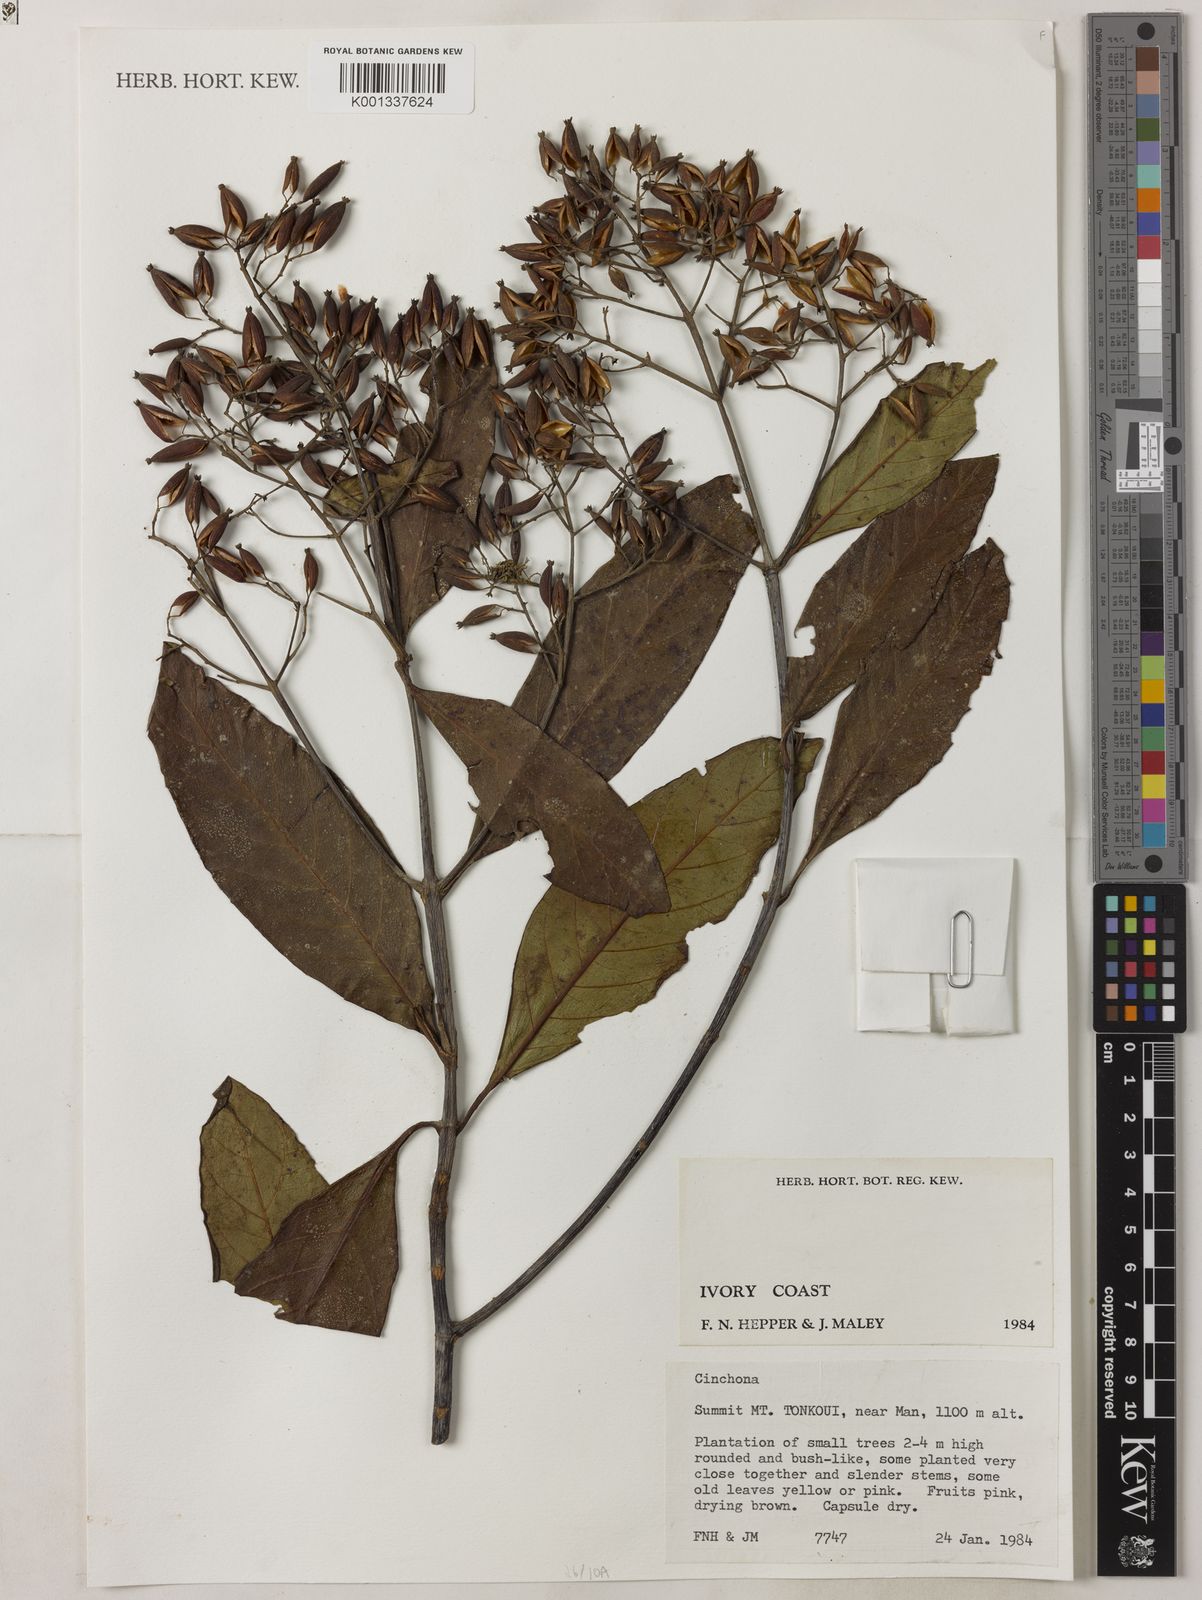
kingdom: Plantae
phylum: Tracheophyta
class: Magnoliopsida
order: Gentianales
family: Rubiaceae
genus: Cinchona
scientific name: Cinchona
